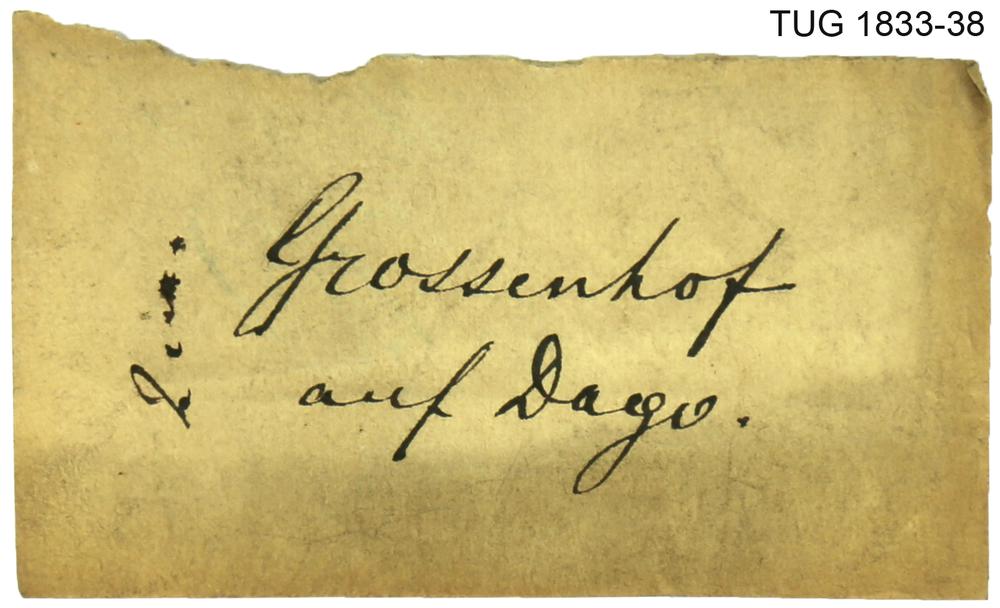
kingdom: Animalia
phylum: Porifera
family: Rosenellidae
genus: Rosenella
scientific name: Rosenella
